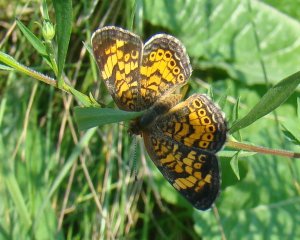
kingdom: Animalia
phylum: Arthropoda
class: Insecta
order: Lepidoptera
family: Nymphalidae
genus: Phyciodes
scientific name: Phyciodes tharos
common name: Pearl Crescent
